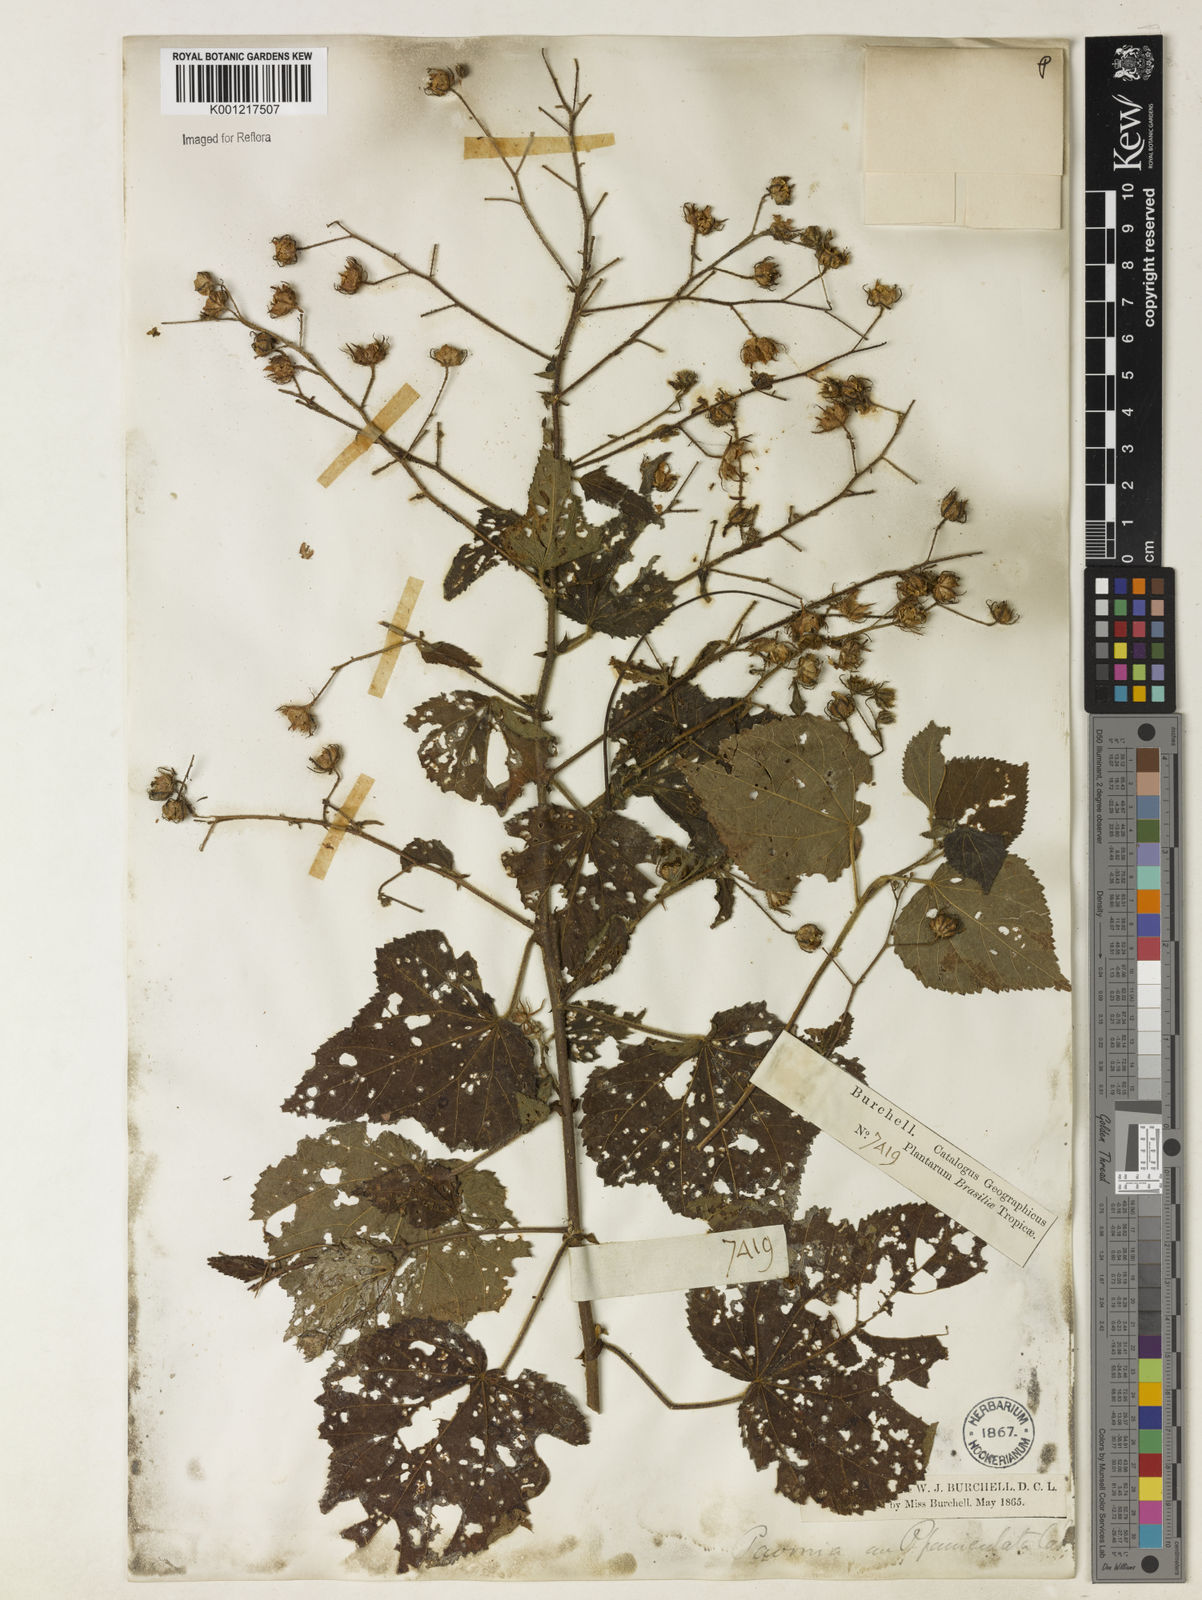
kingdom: Plantae
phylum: Tracheophyta
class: Magnoliopsida
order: Malvales
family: Malvaceae
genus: Pavonia
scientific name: Pavonia paniculata
